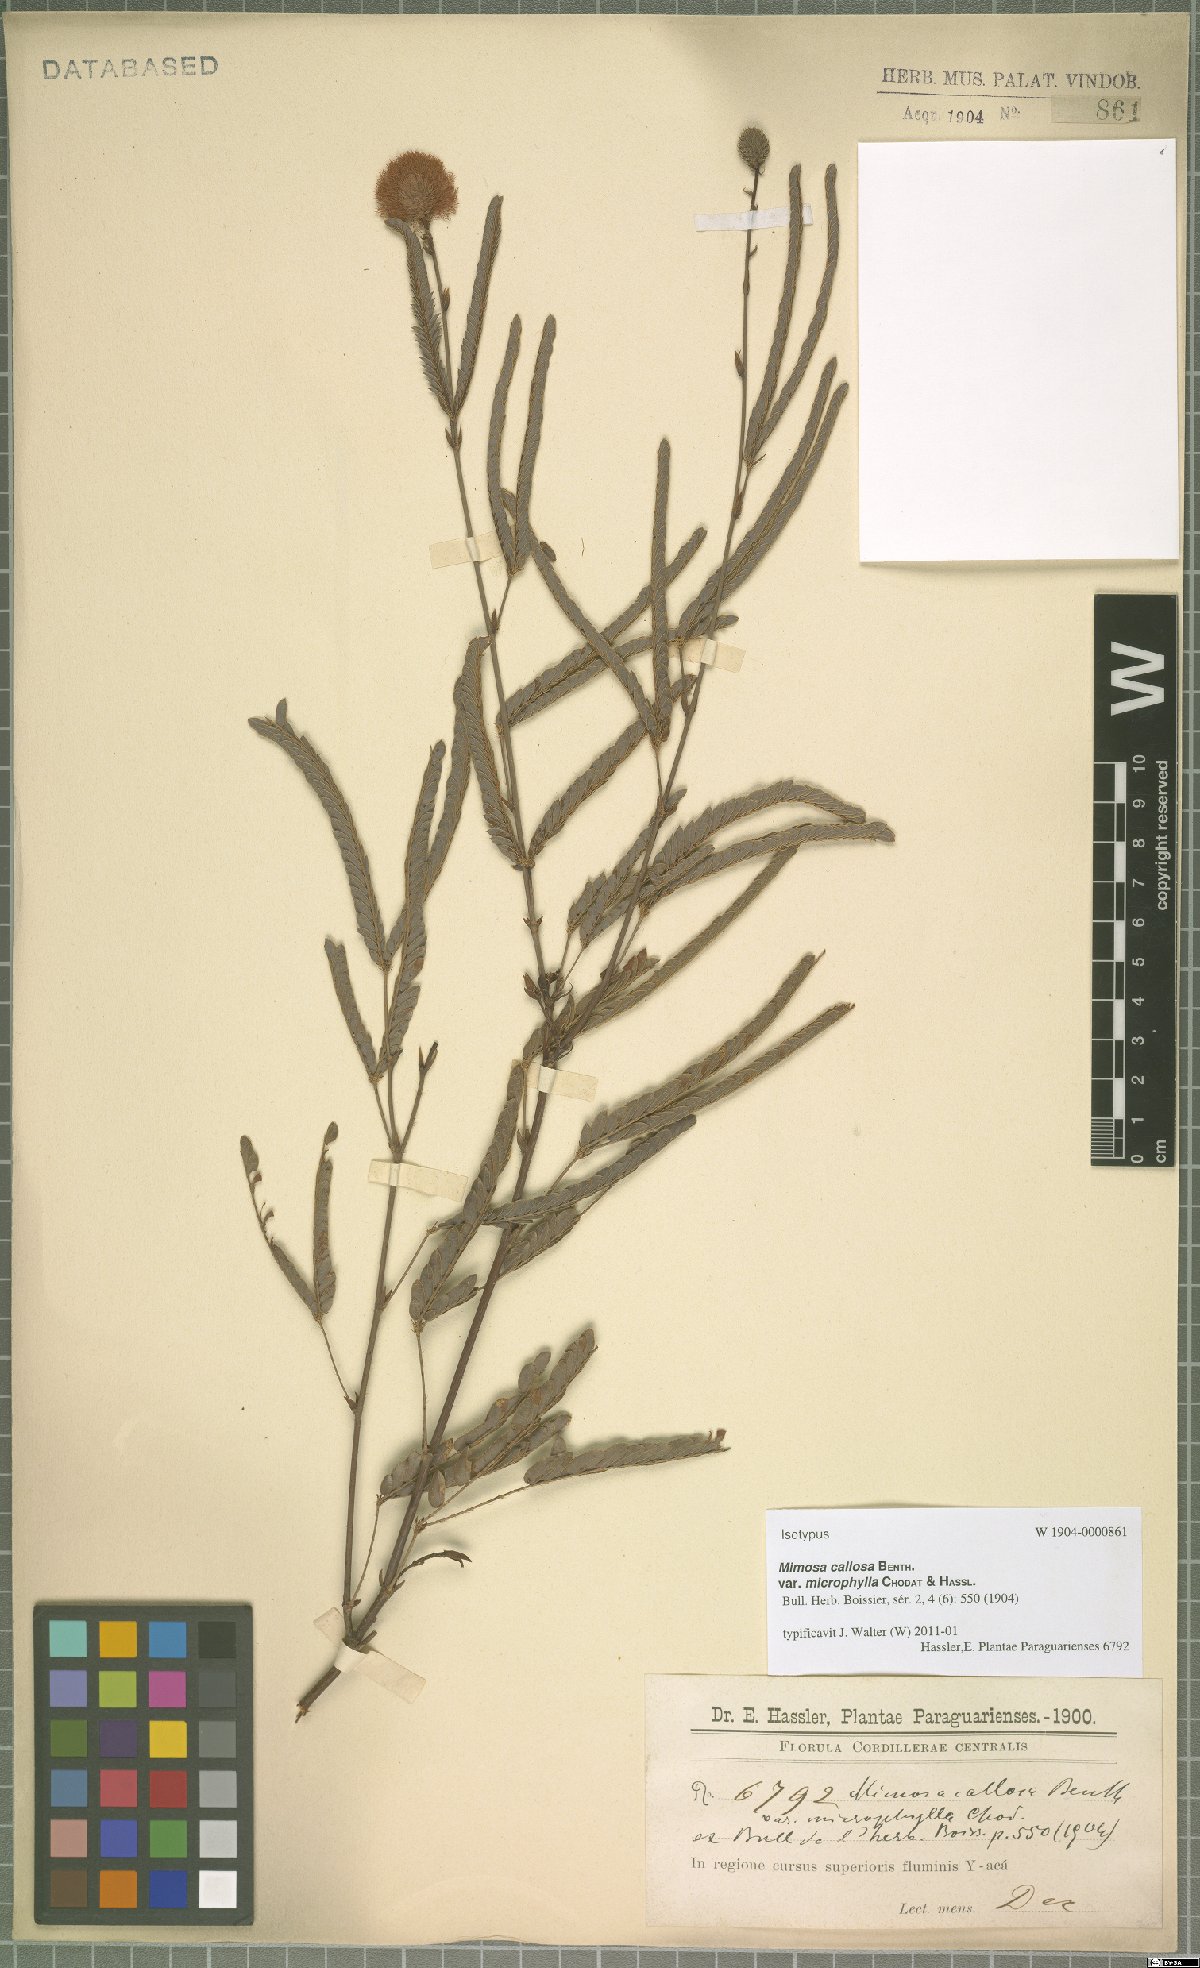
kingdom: Plantae
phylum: Tracheophyta
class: Magnoliopsida
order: Fabales
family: Fabaceae
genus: Mimosa
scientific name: Mimosa dolens
